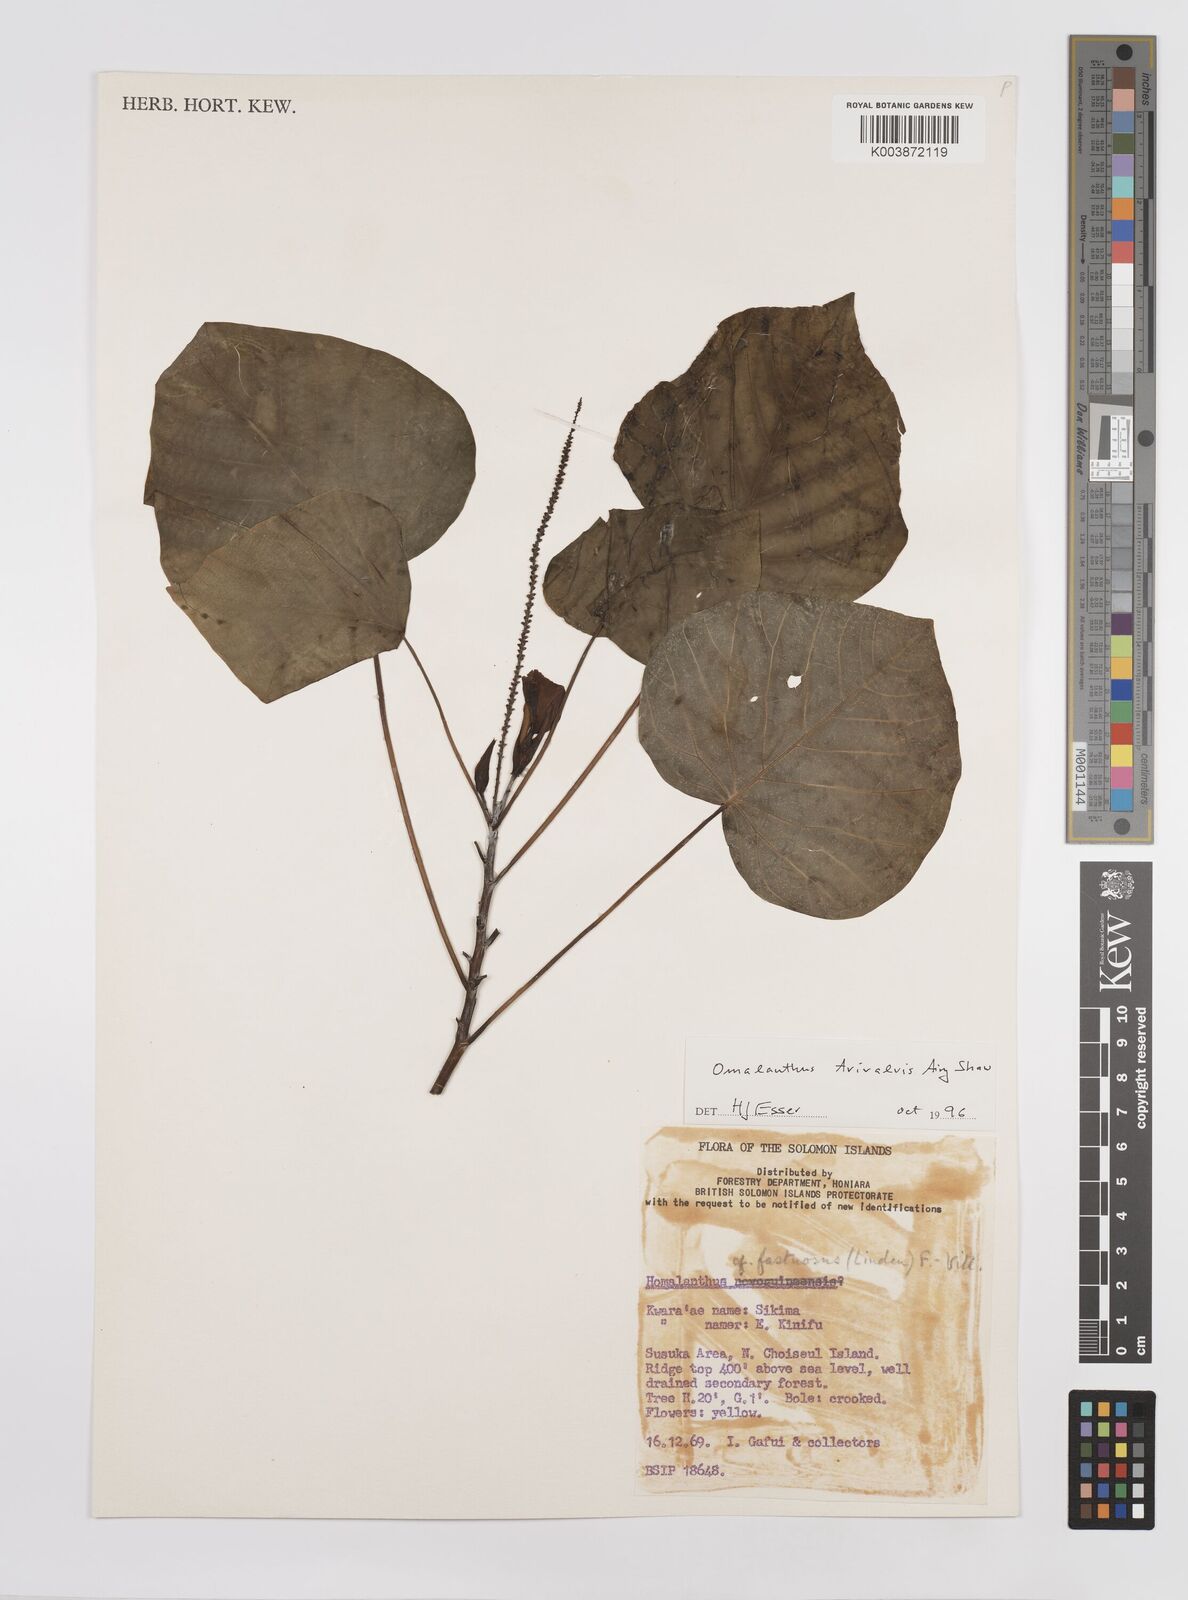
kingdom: Plantae
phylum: Tracheophyta
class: Magnoliopsida
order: Malpighiales
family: Euphorbiaceae
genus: Homalanthus
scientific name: Homalanthus trivalvis
